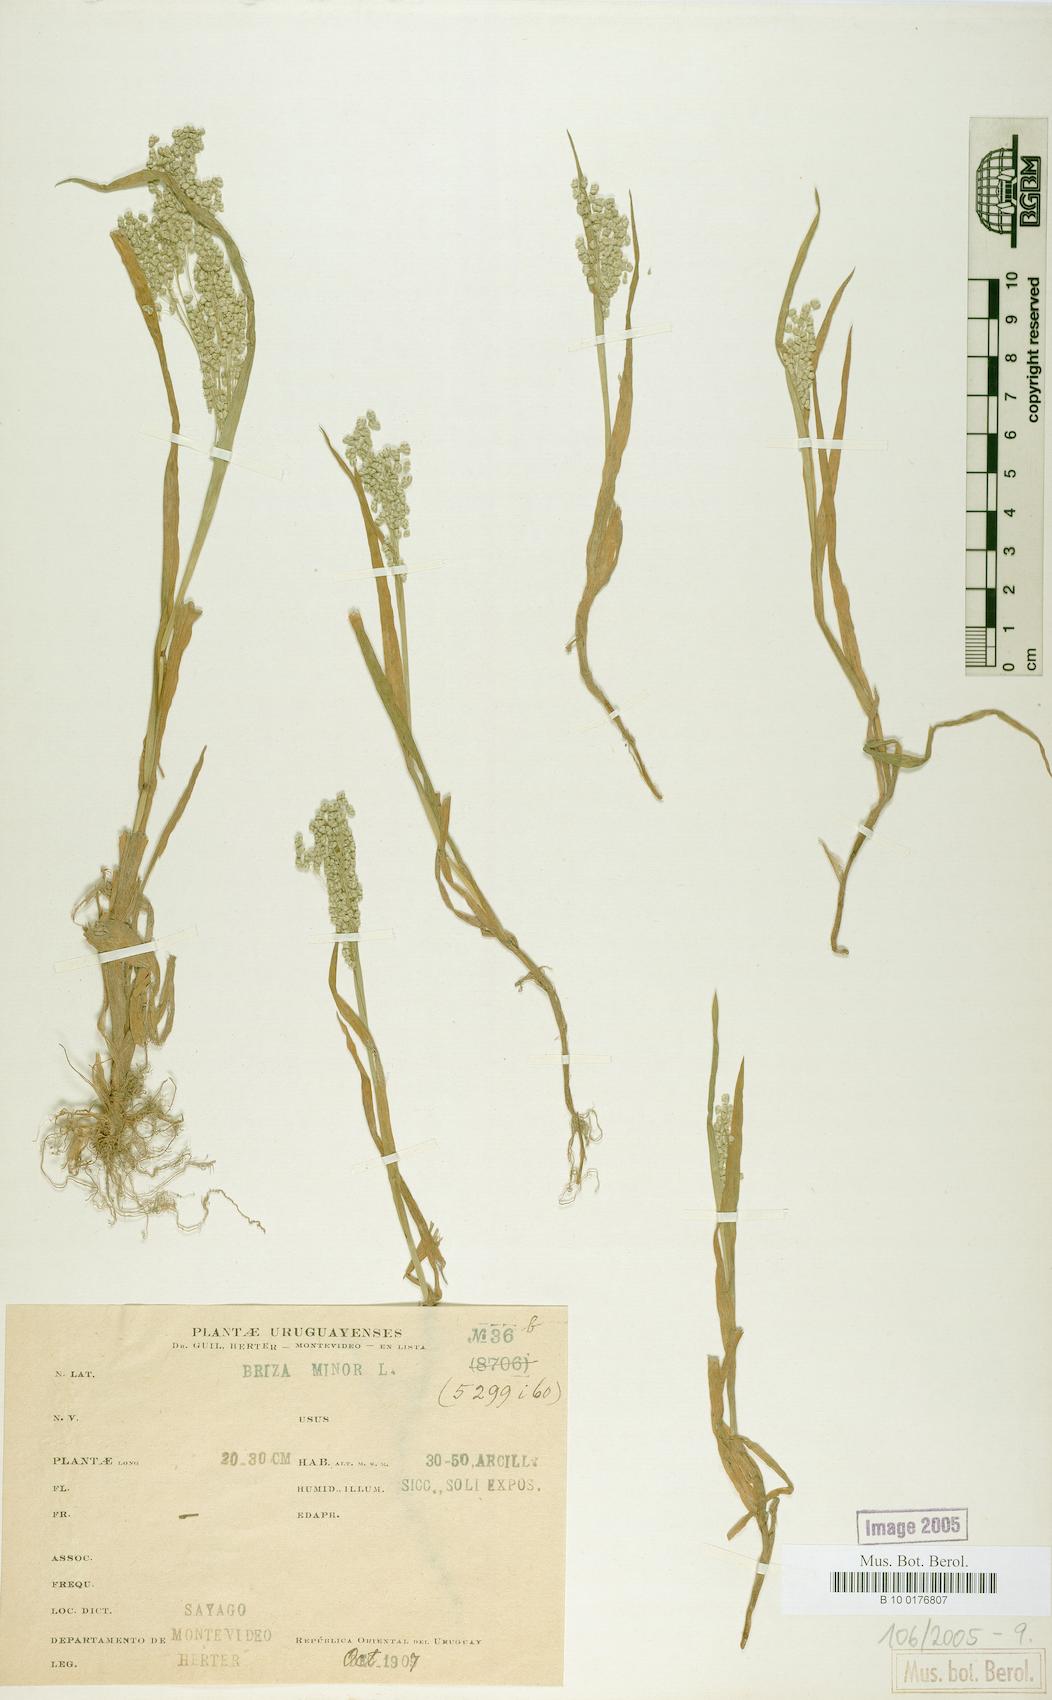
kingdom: Plantae
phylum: Tracheophyta
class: Liliopsida
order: Poales
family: Poaceae
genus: Briza
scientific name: Briza minor
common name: Lesser quaking-grass
